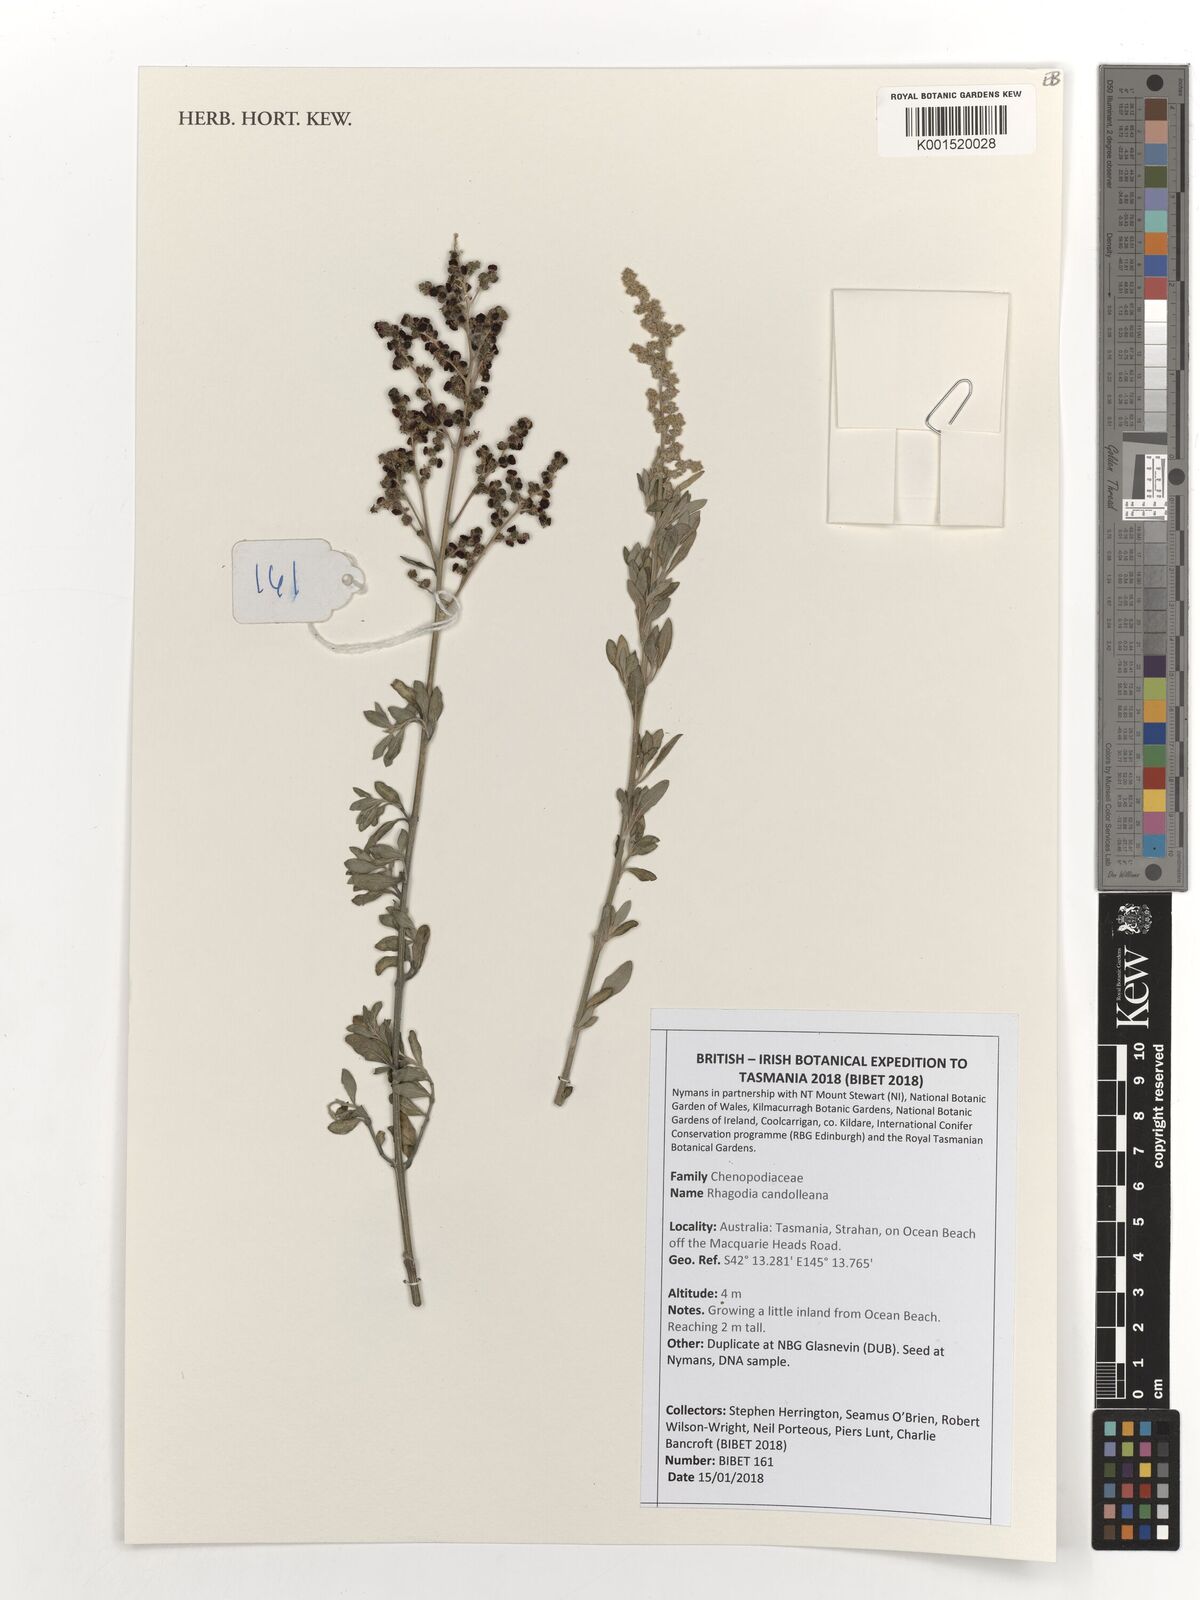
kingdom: Plantae
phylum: Tracheophyta
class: Magnoliopsida
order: Caryophyllales
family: Amaranthaceae
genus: Chenopodium
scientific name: Chenopodium candolleanum
